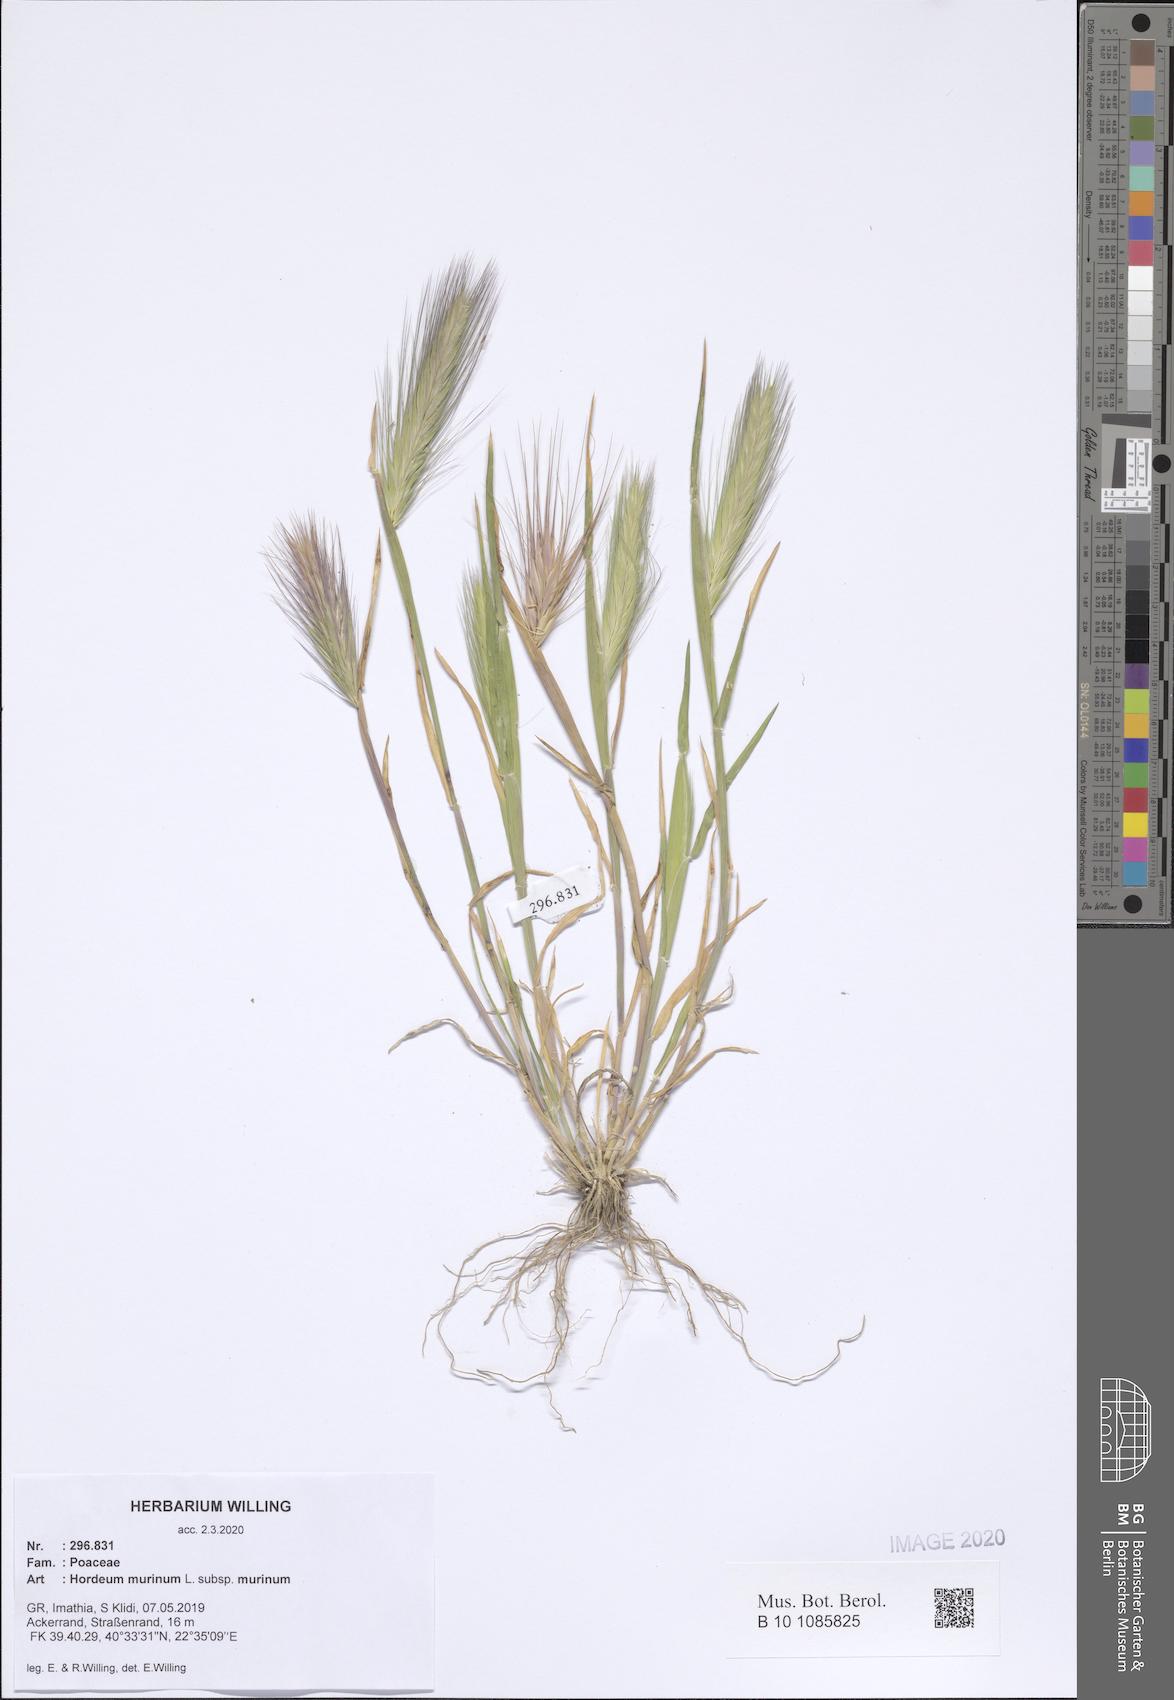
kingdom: Plantae
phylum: Tracheophyta
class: Liliopsida
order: Poales
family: Poaceae
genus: Hordeum
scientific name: Hordeum murinum
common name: Wall barley
